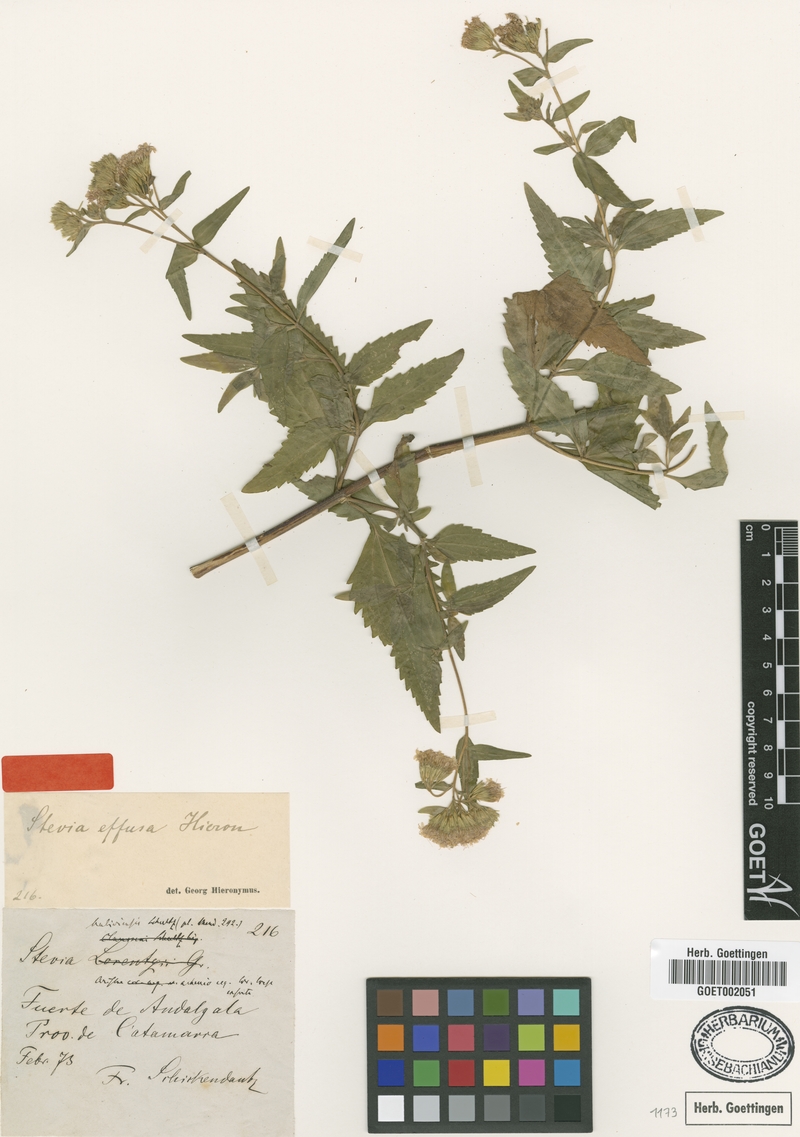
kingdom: Plantae
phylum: Tracheophyta
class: Magnoliopsida
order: Asterales
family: Asteraceae
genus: Stevia
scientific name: Stevia vaga
